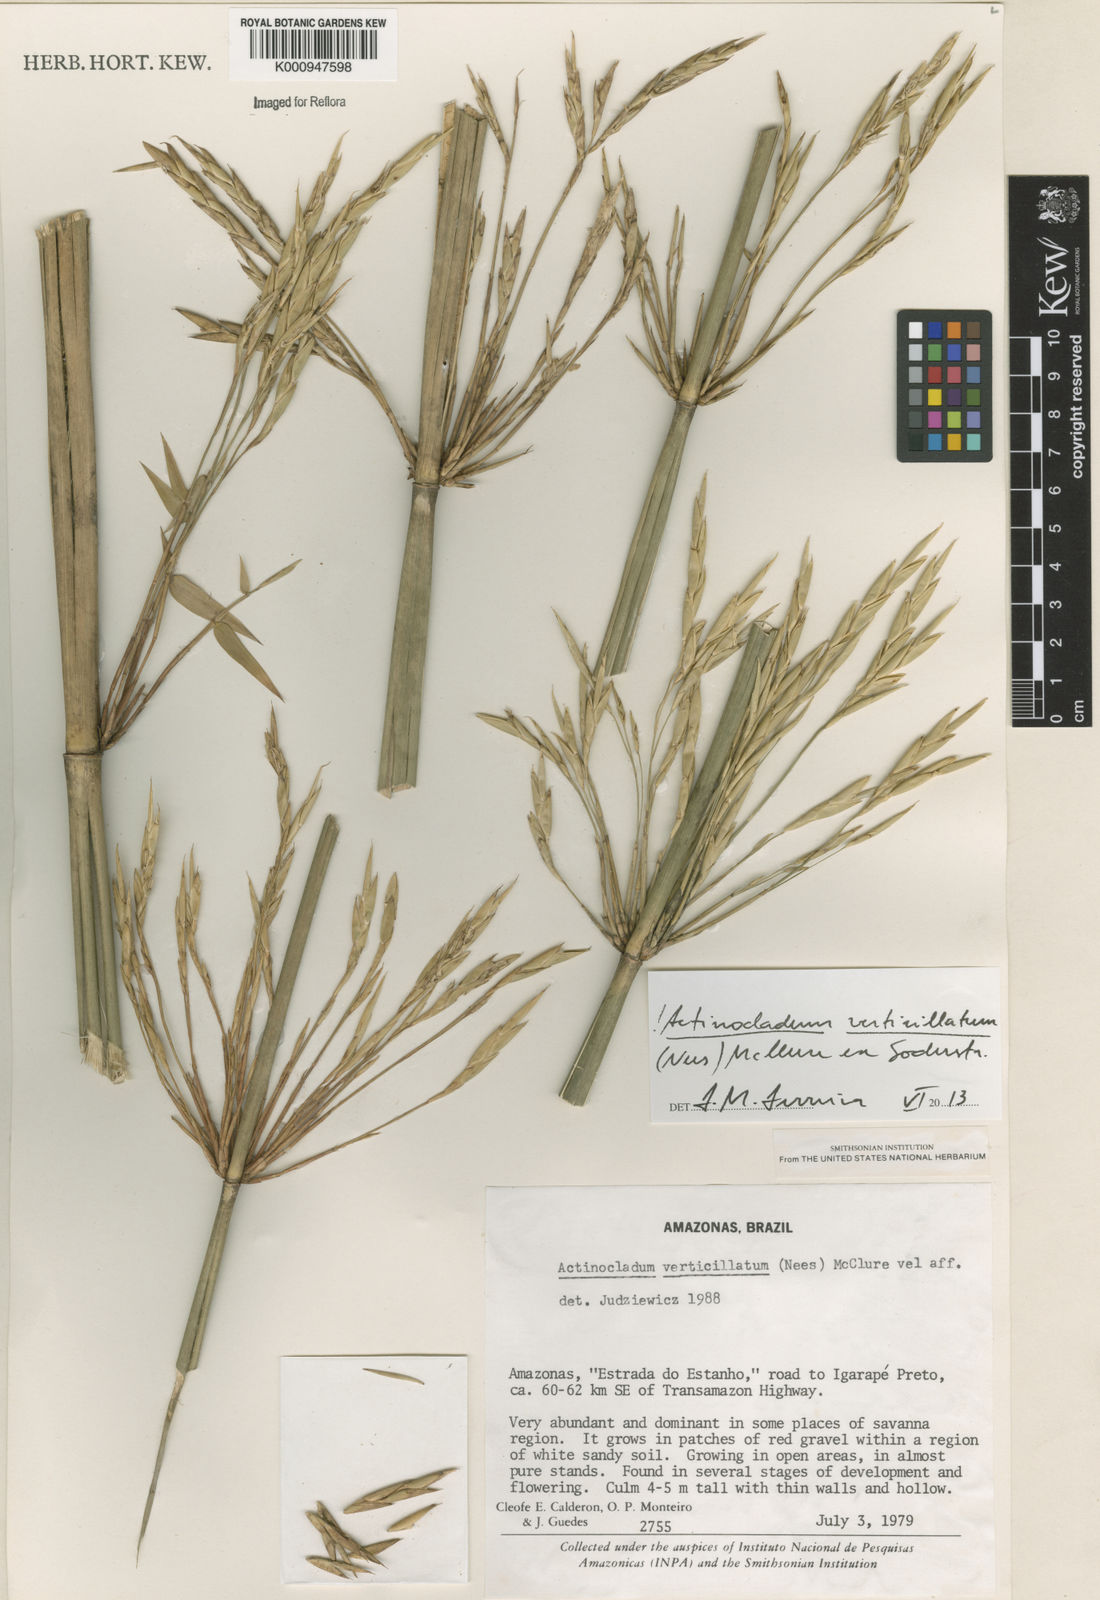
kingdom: Plantae
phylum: Tracheophyta
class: Liliopsida
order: Poales
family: Poaceae
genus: Actinocladum
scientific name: Actinocladum verticillatum
